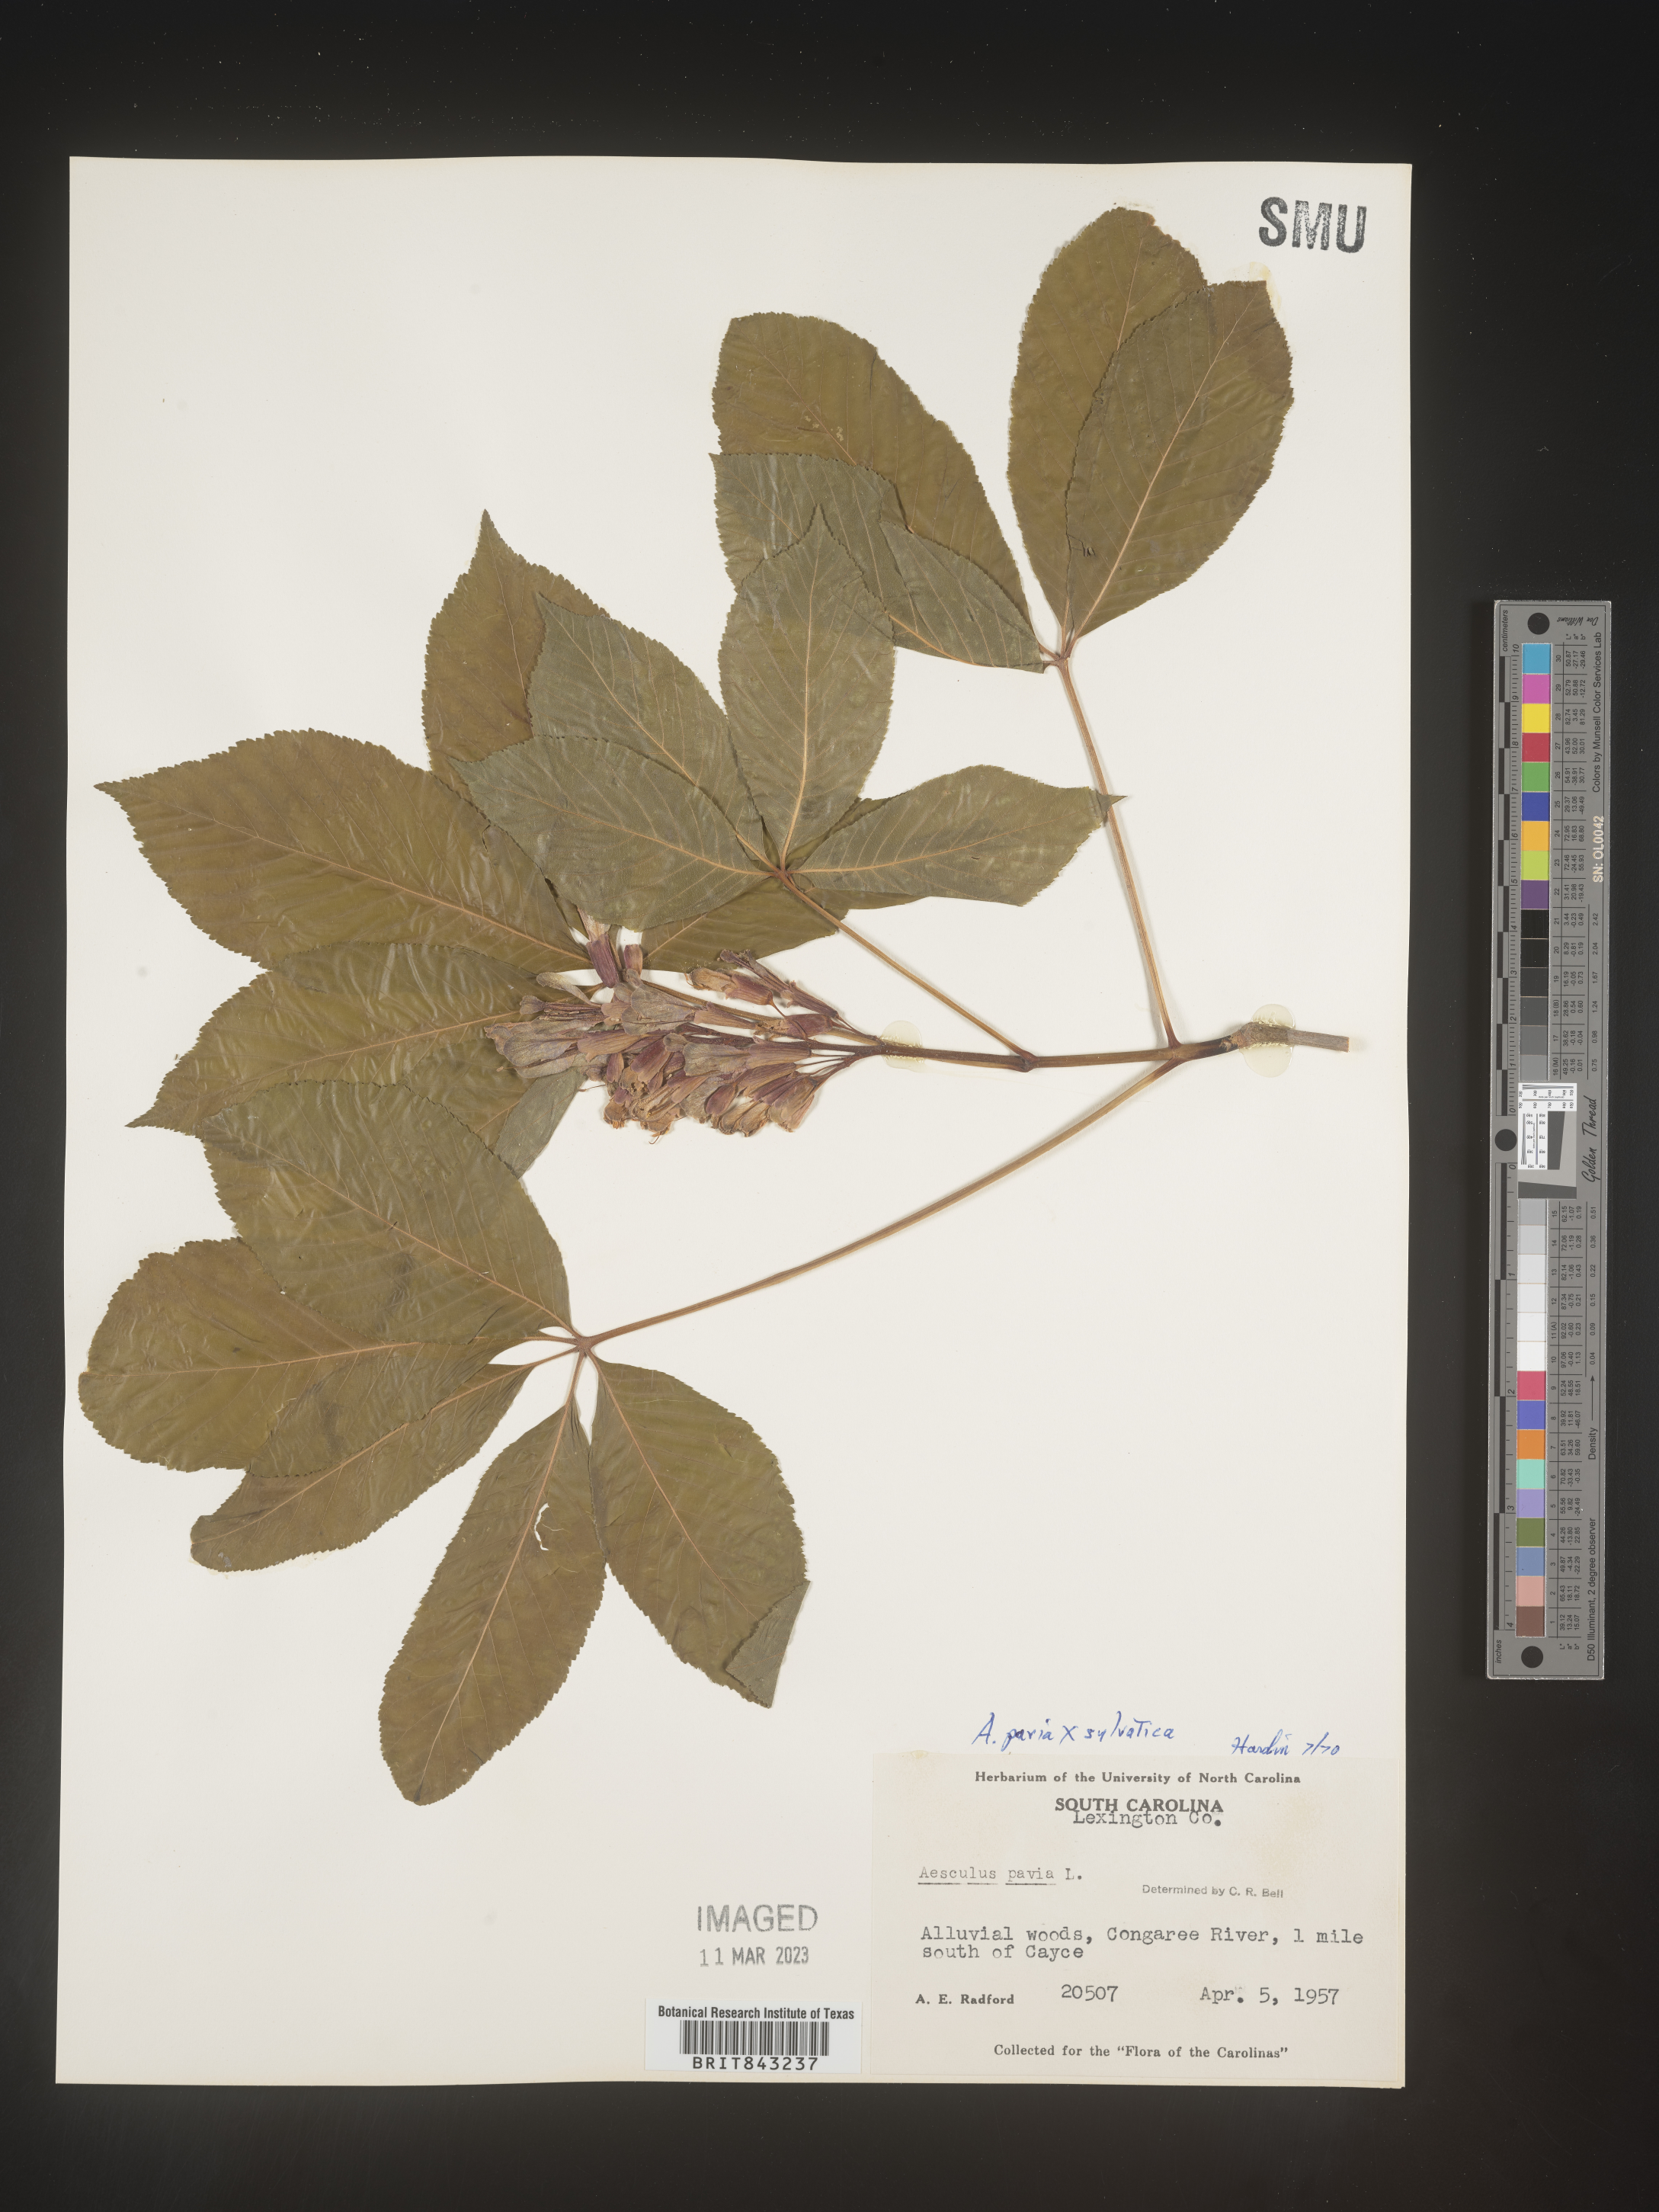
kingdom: Plantae
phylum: Tracheophyta
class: Magnoliopsida
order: Sapindales
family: Sapindaceae
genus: Aesculus
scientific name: Aesculus pavia
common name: Red buckeye
